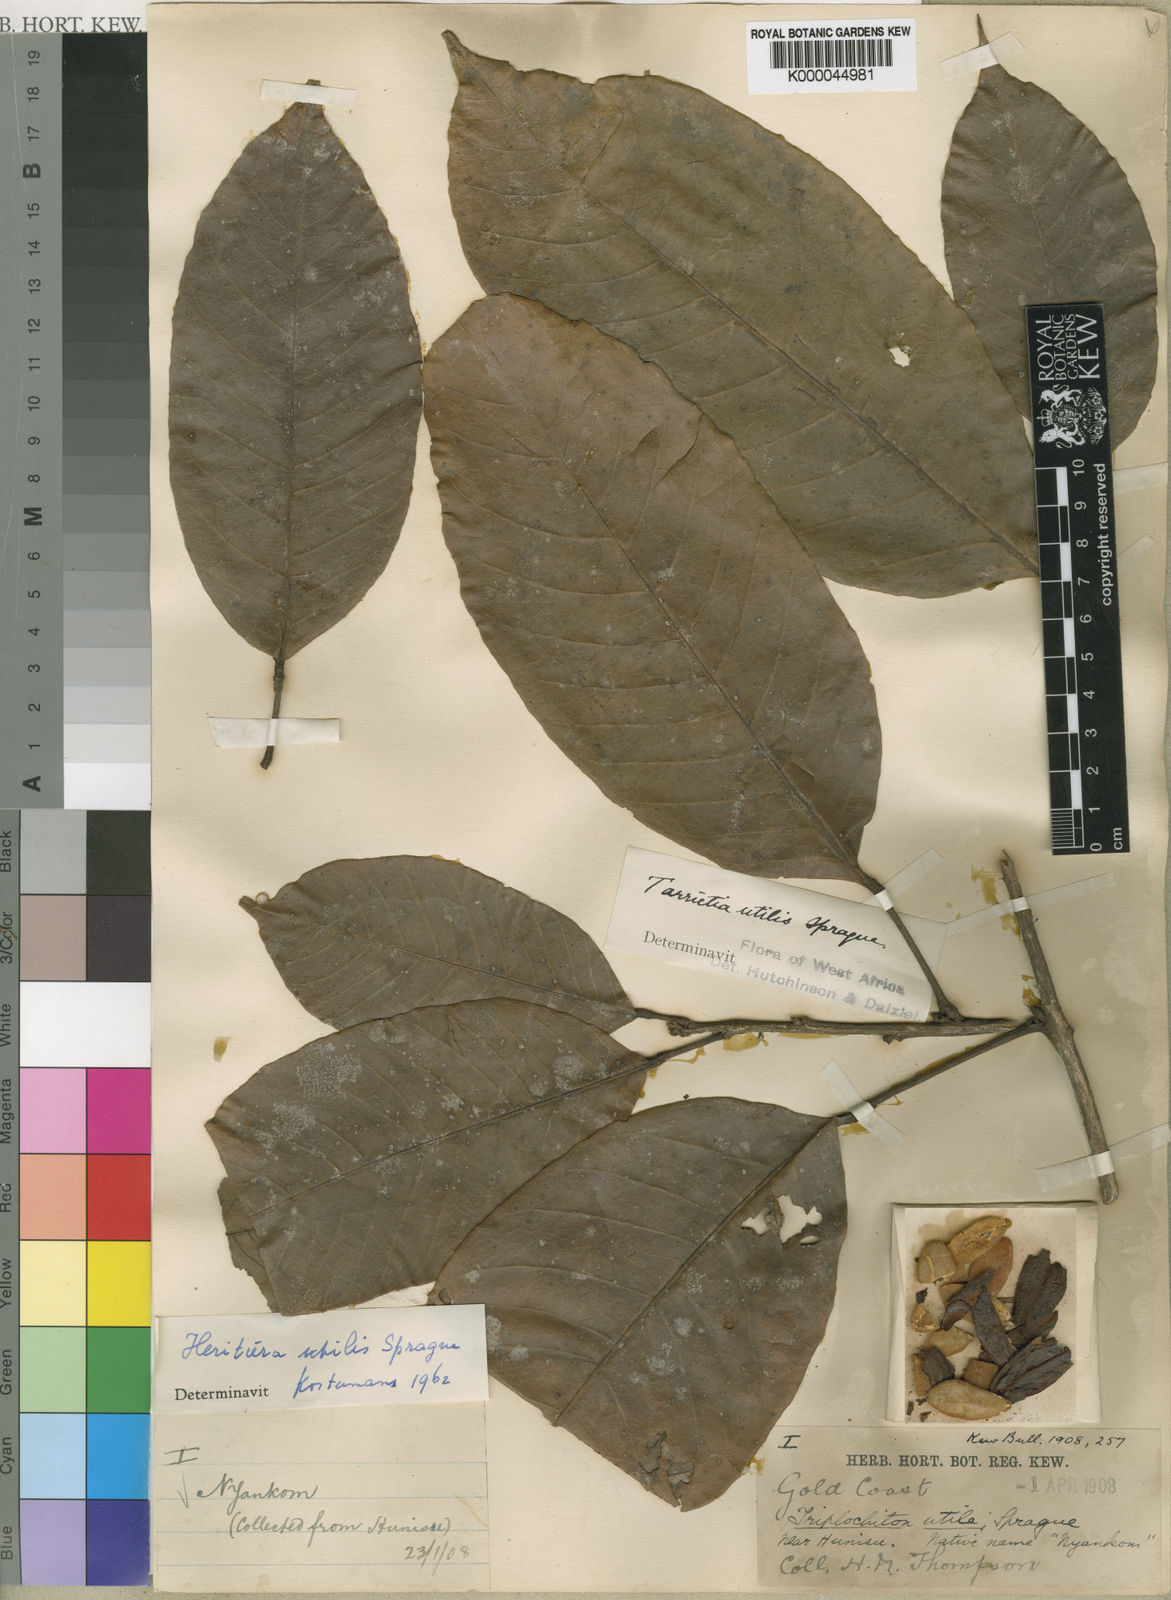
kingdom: Plantae
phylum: Tracheophyta
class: Magnoliopsida
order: Malvales
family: Malvaceae
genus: Heritiera
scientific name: Heritiera utilis
